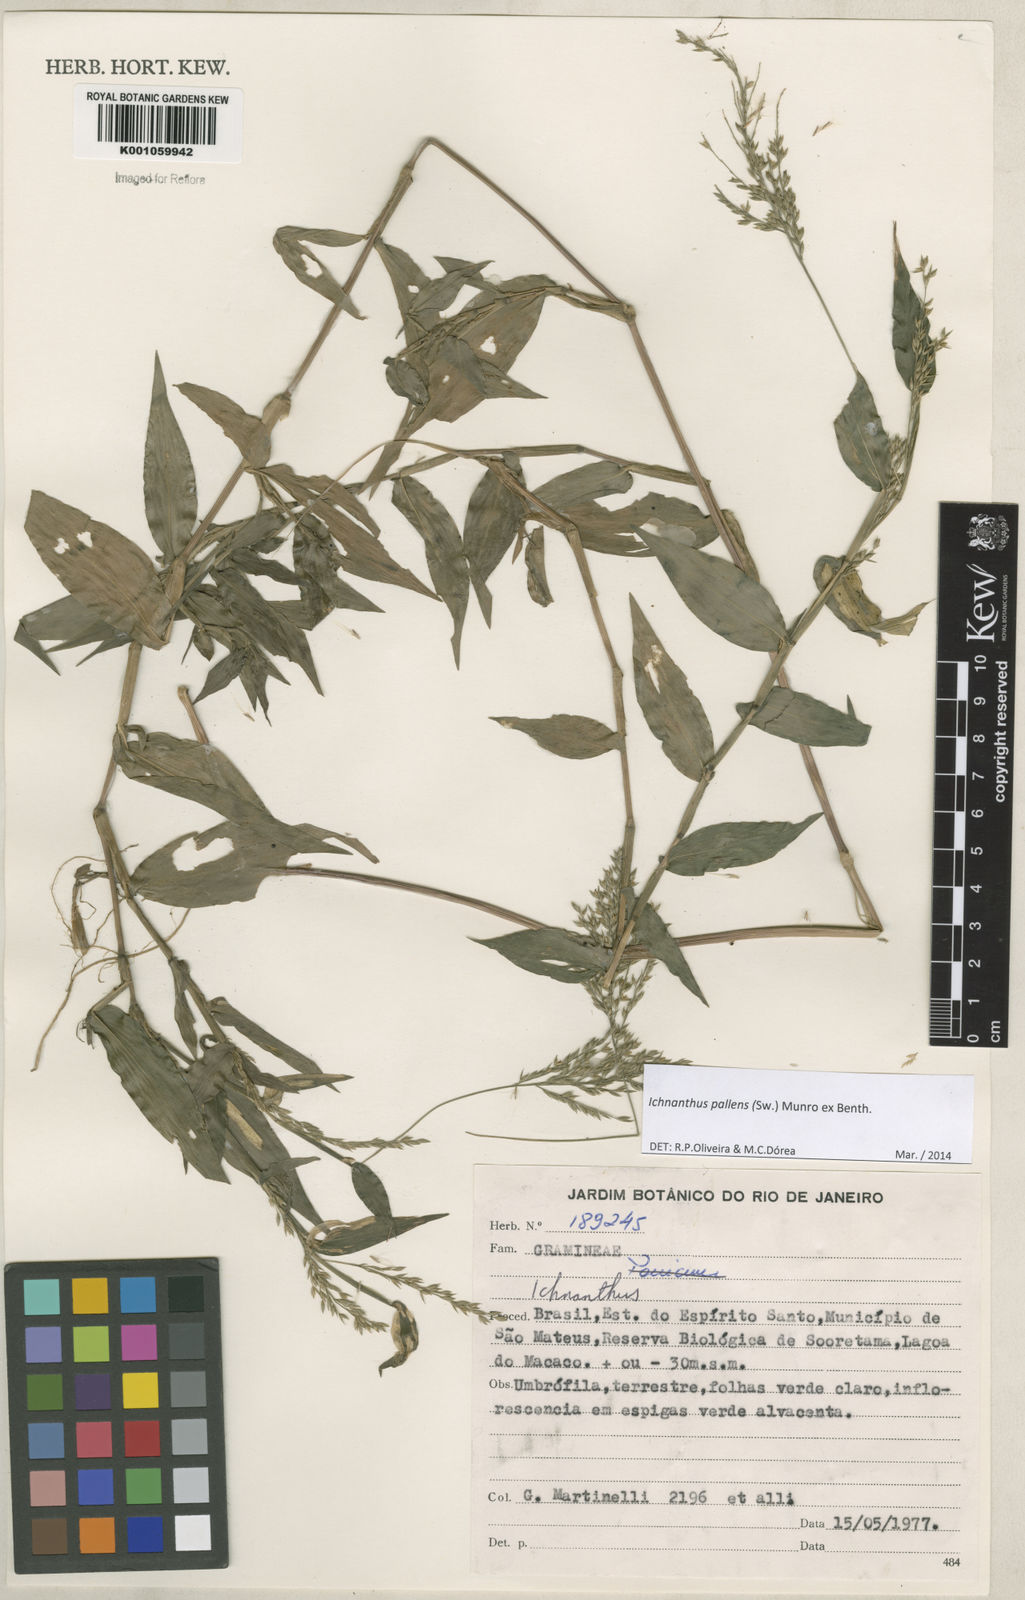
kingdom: Plantae
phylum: Tracheophyta
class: Liliopsida
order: Poales
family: Poaceae
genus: Ichnanthus
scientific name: Ichnanthus pallens
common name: Water grass
